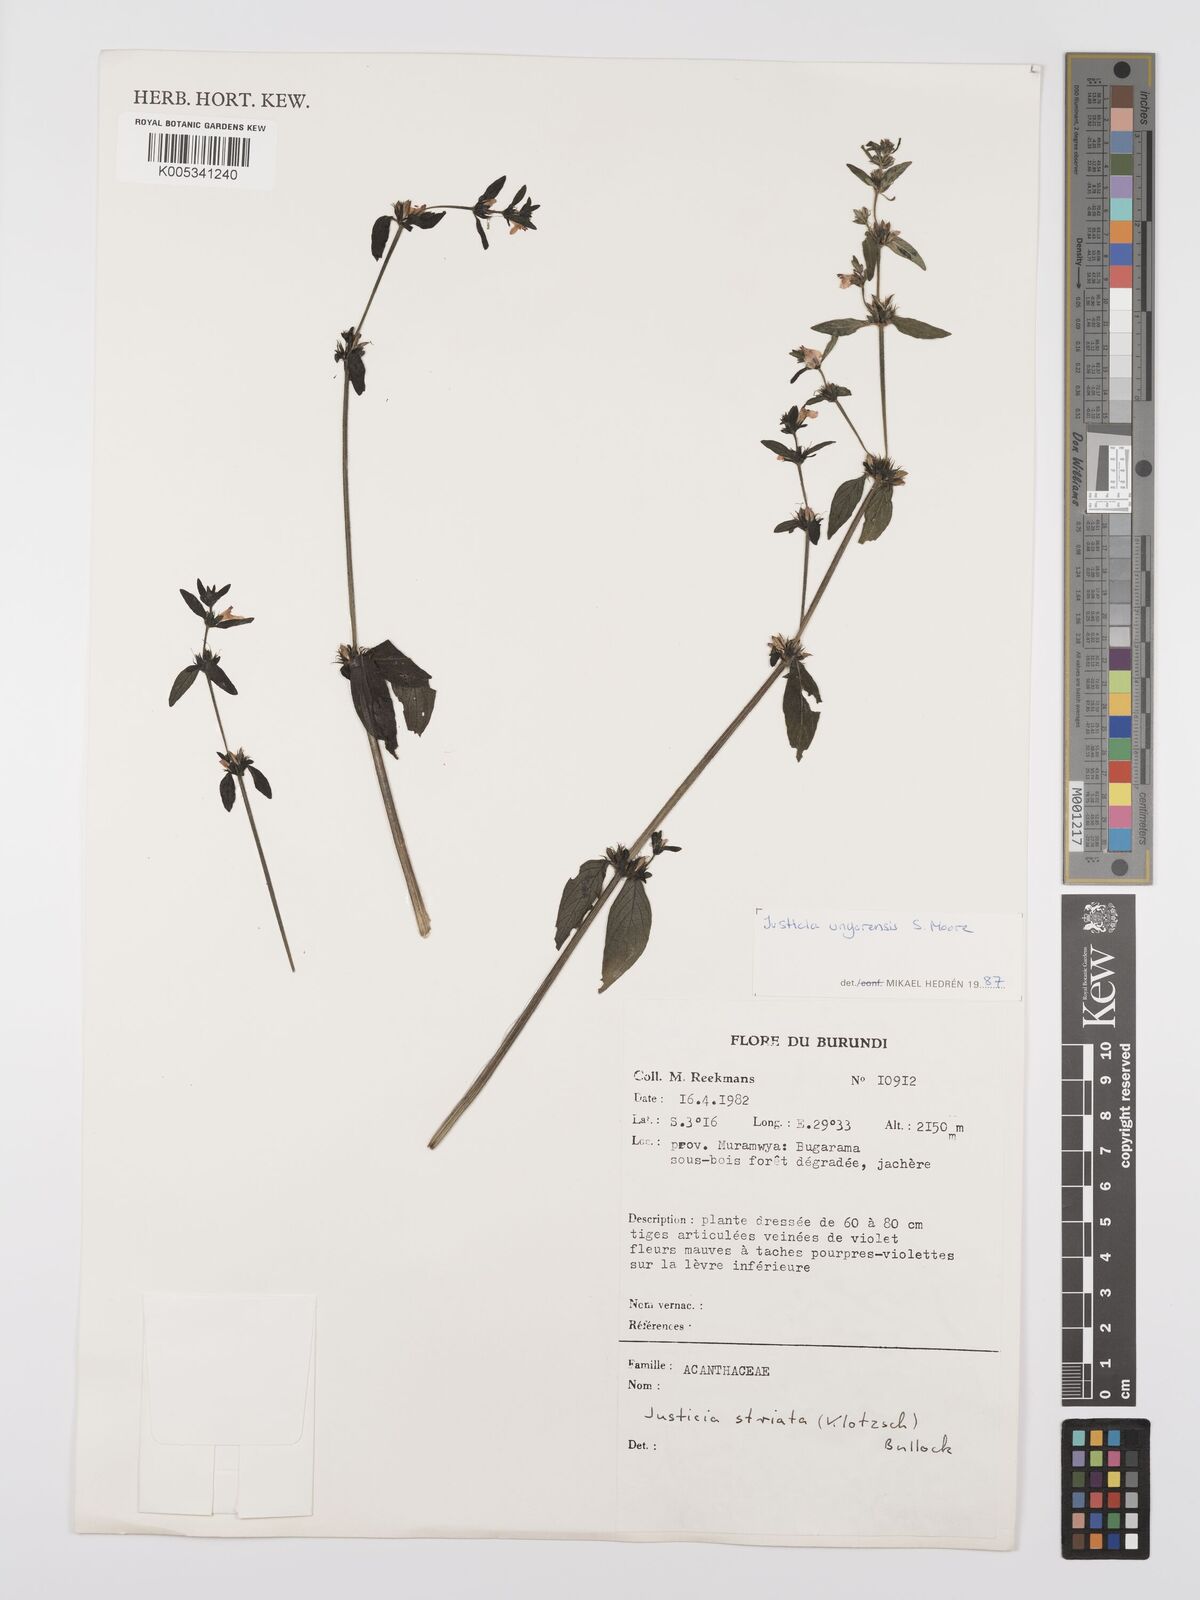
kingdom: Plantae
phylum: Tracheophyta
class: Magnoliopsida
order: Lamiales
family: Acanthaceae
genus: Justicia
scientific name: Justicia unyorensis
